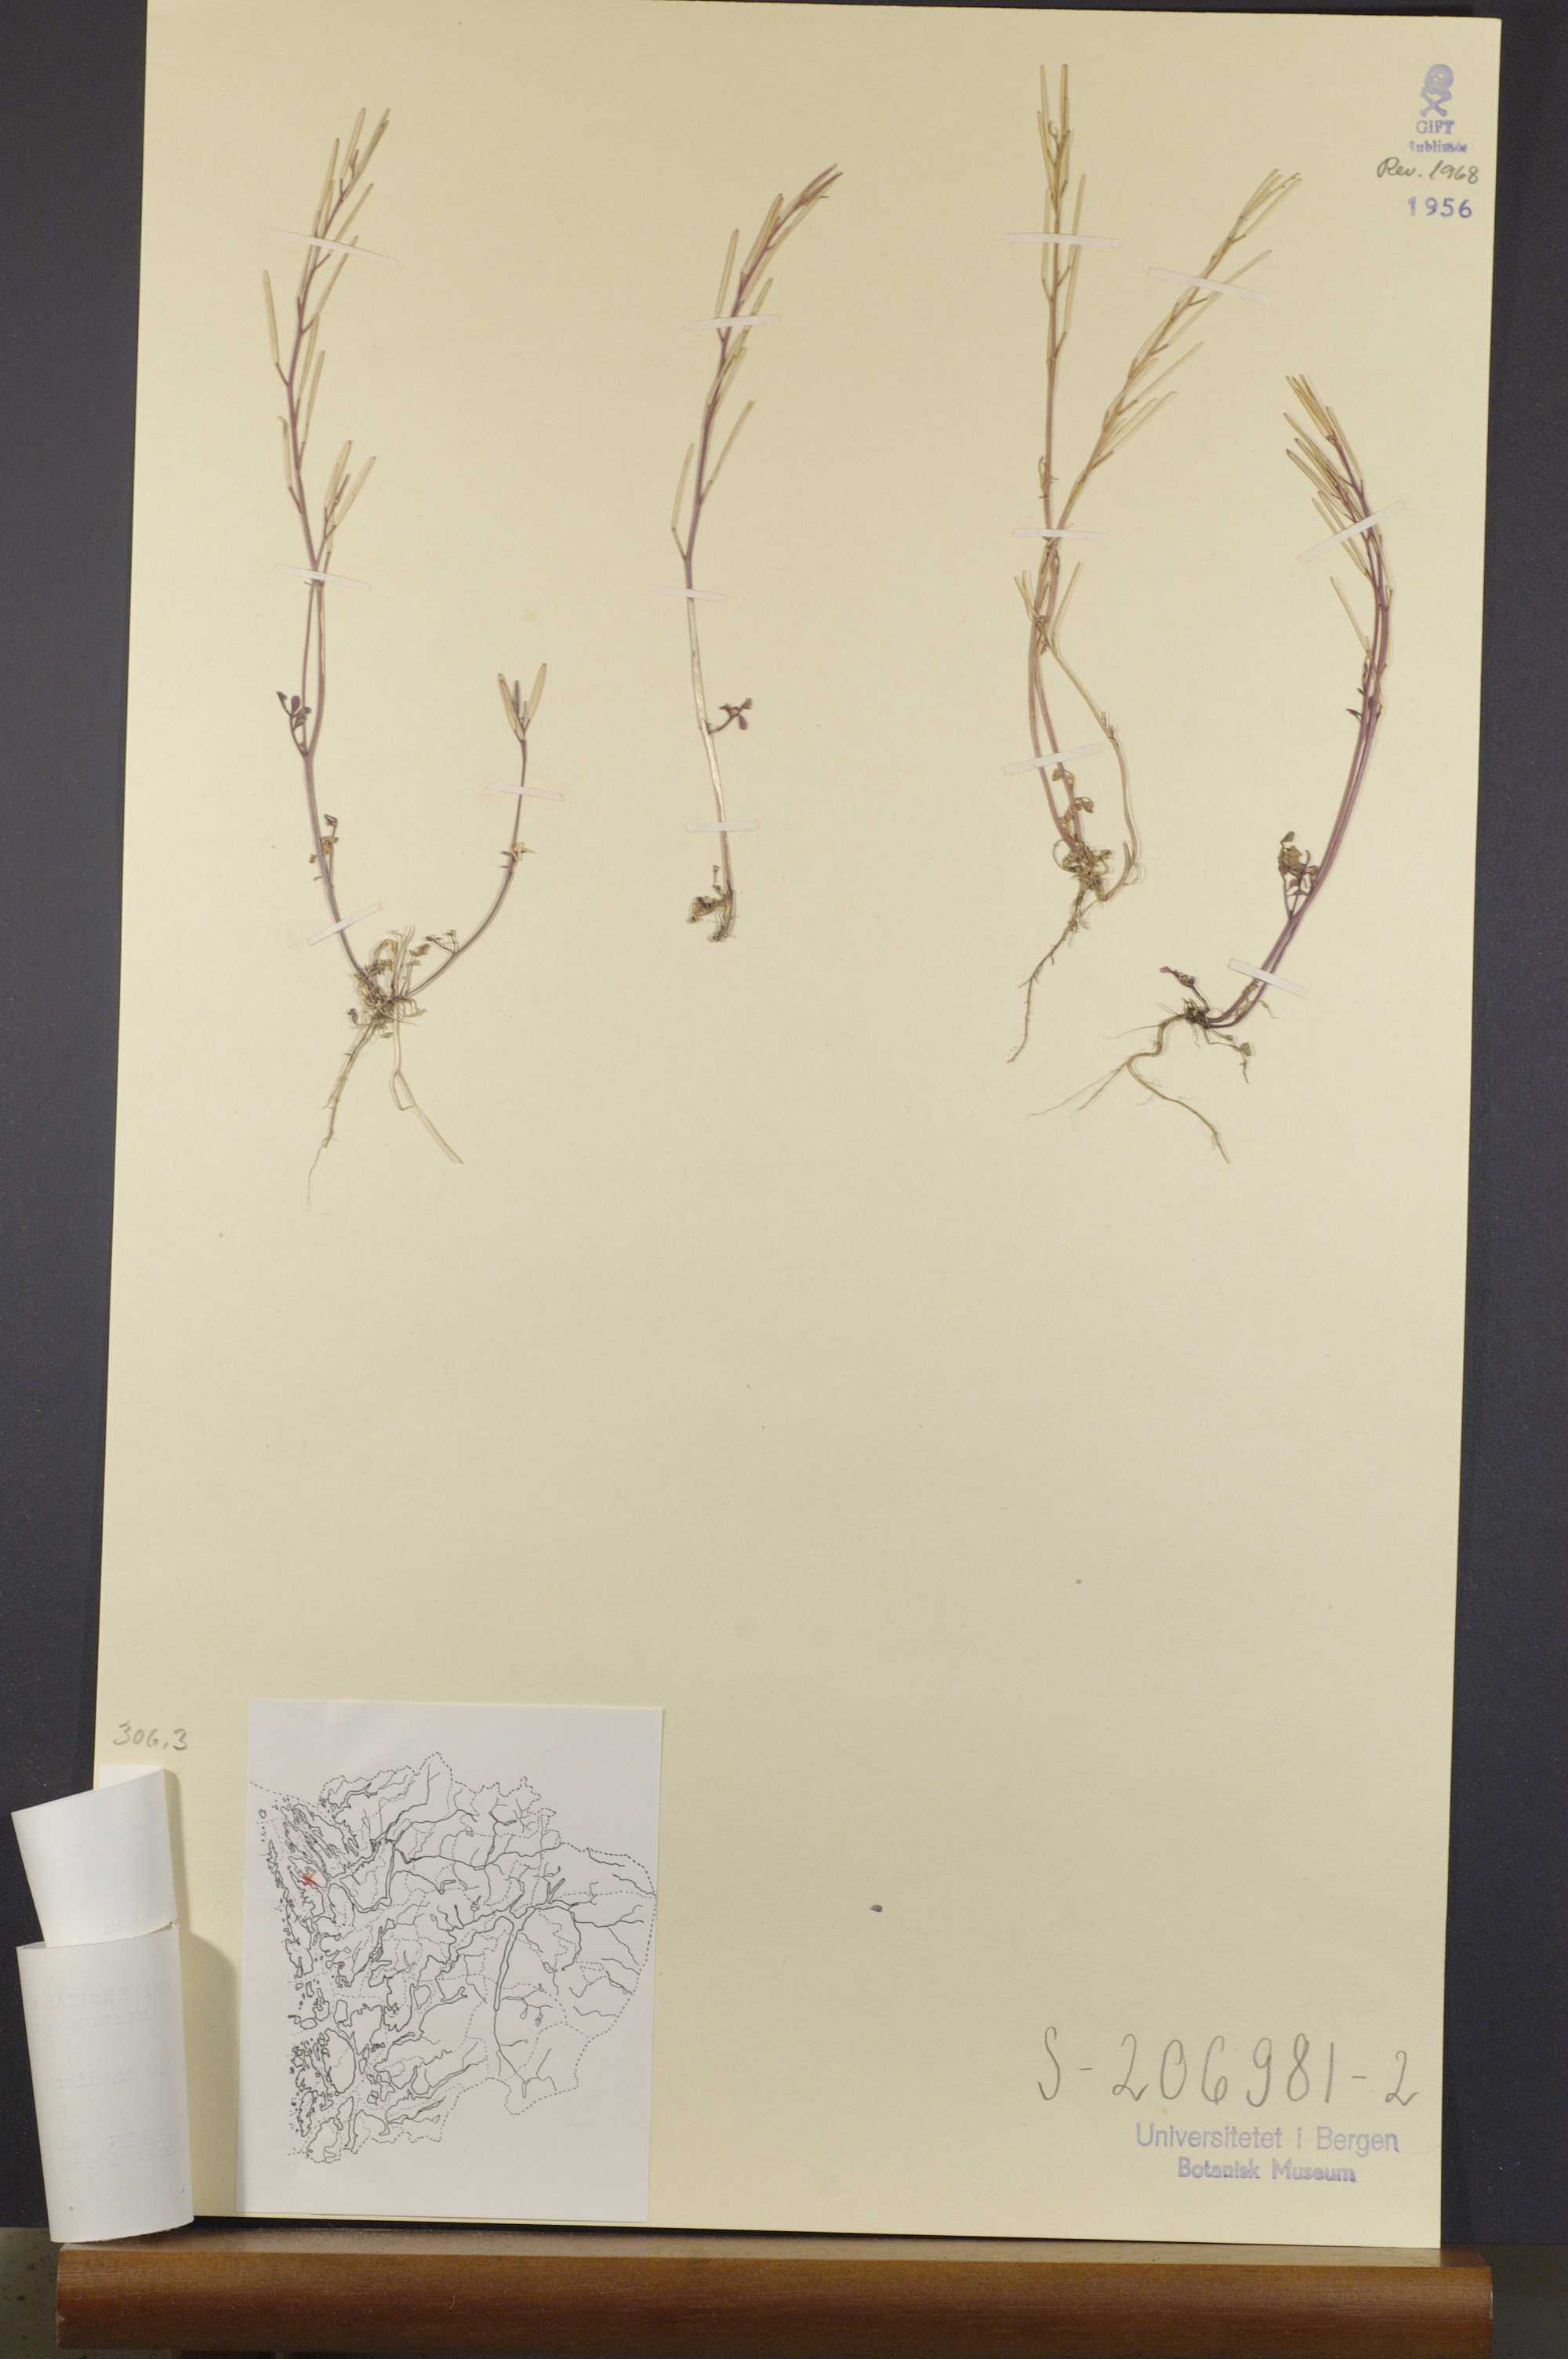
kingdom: Plantae
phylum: Tracheophyta
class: Magnoliopsida
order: Brassicales
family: Brassicaceae
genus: Cardamine
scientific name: Cardamine hirsuta
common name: Hairy bittercress
